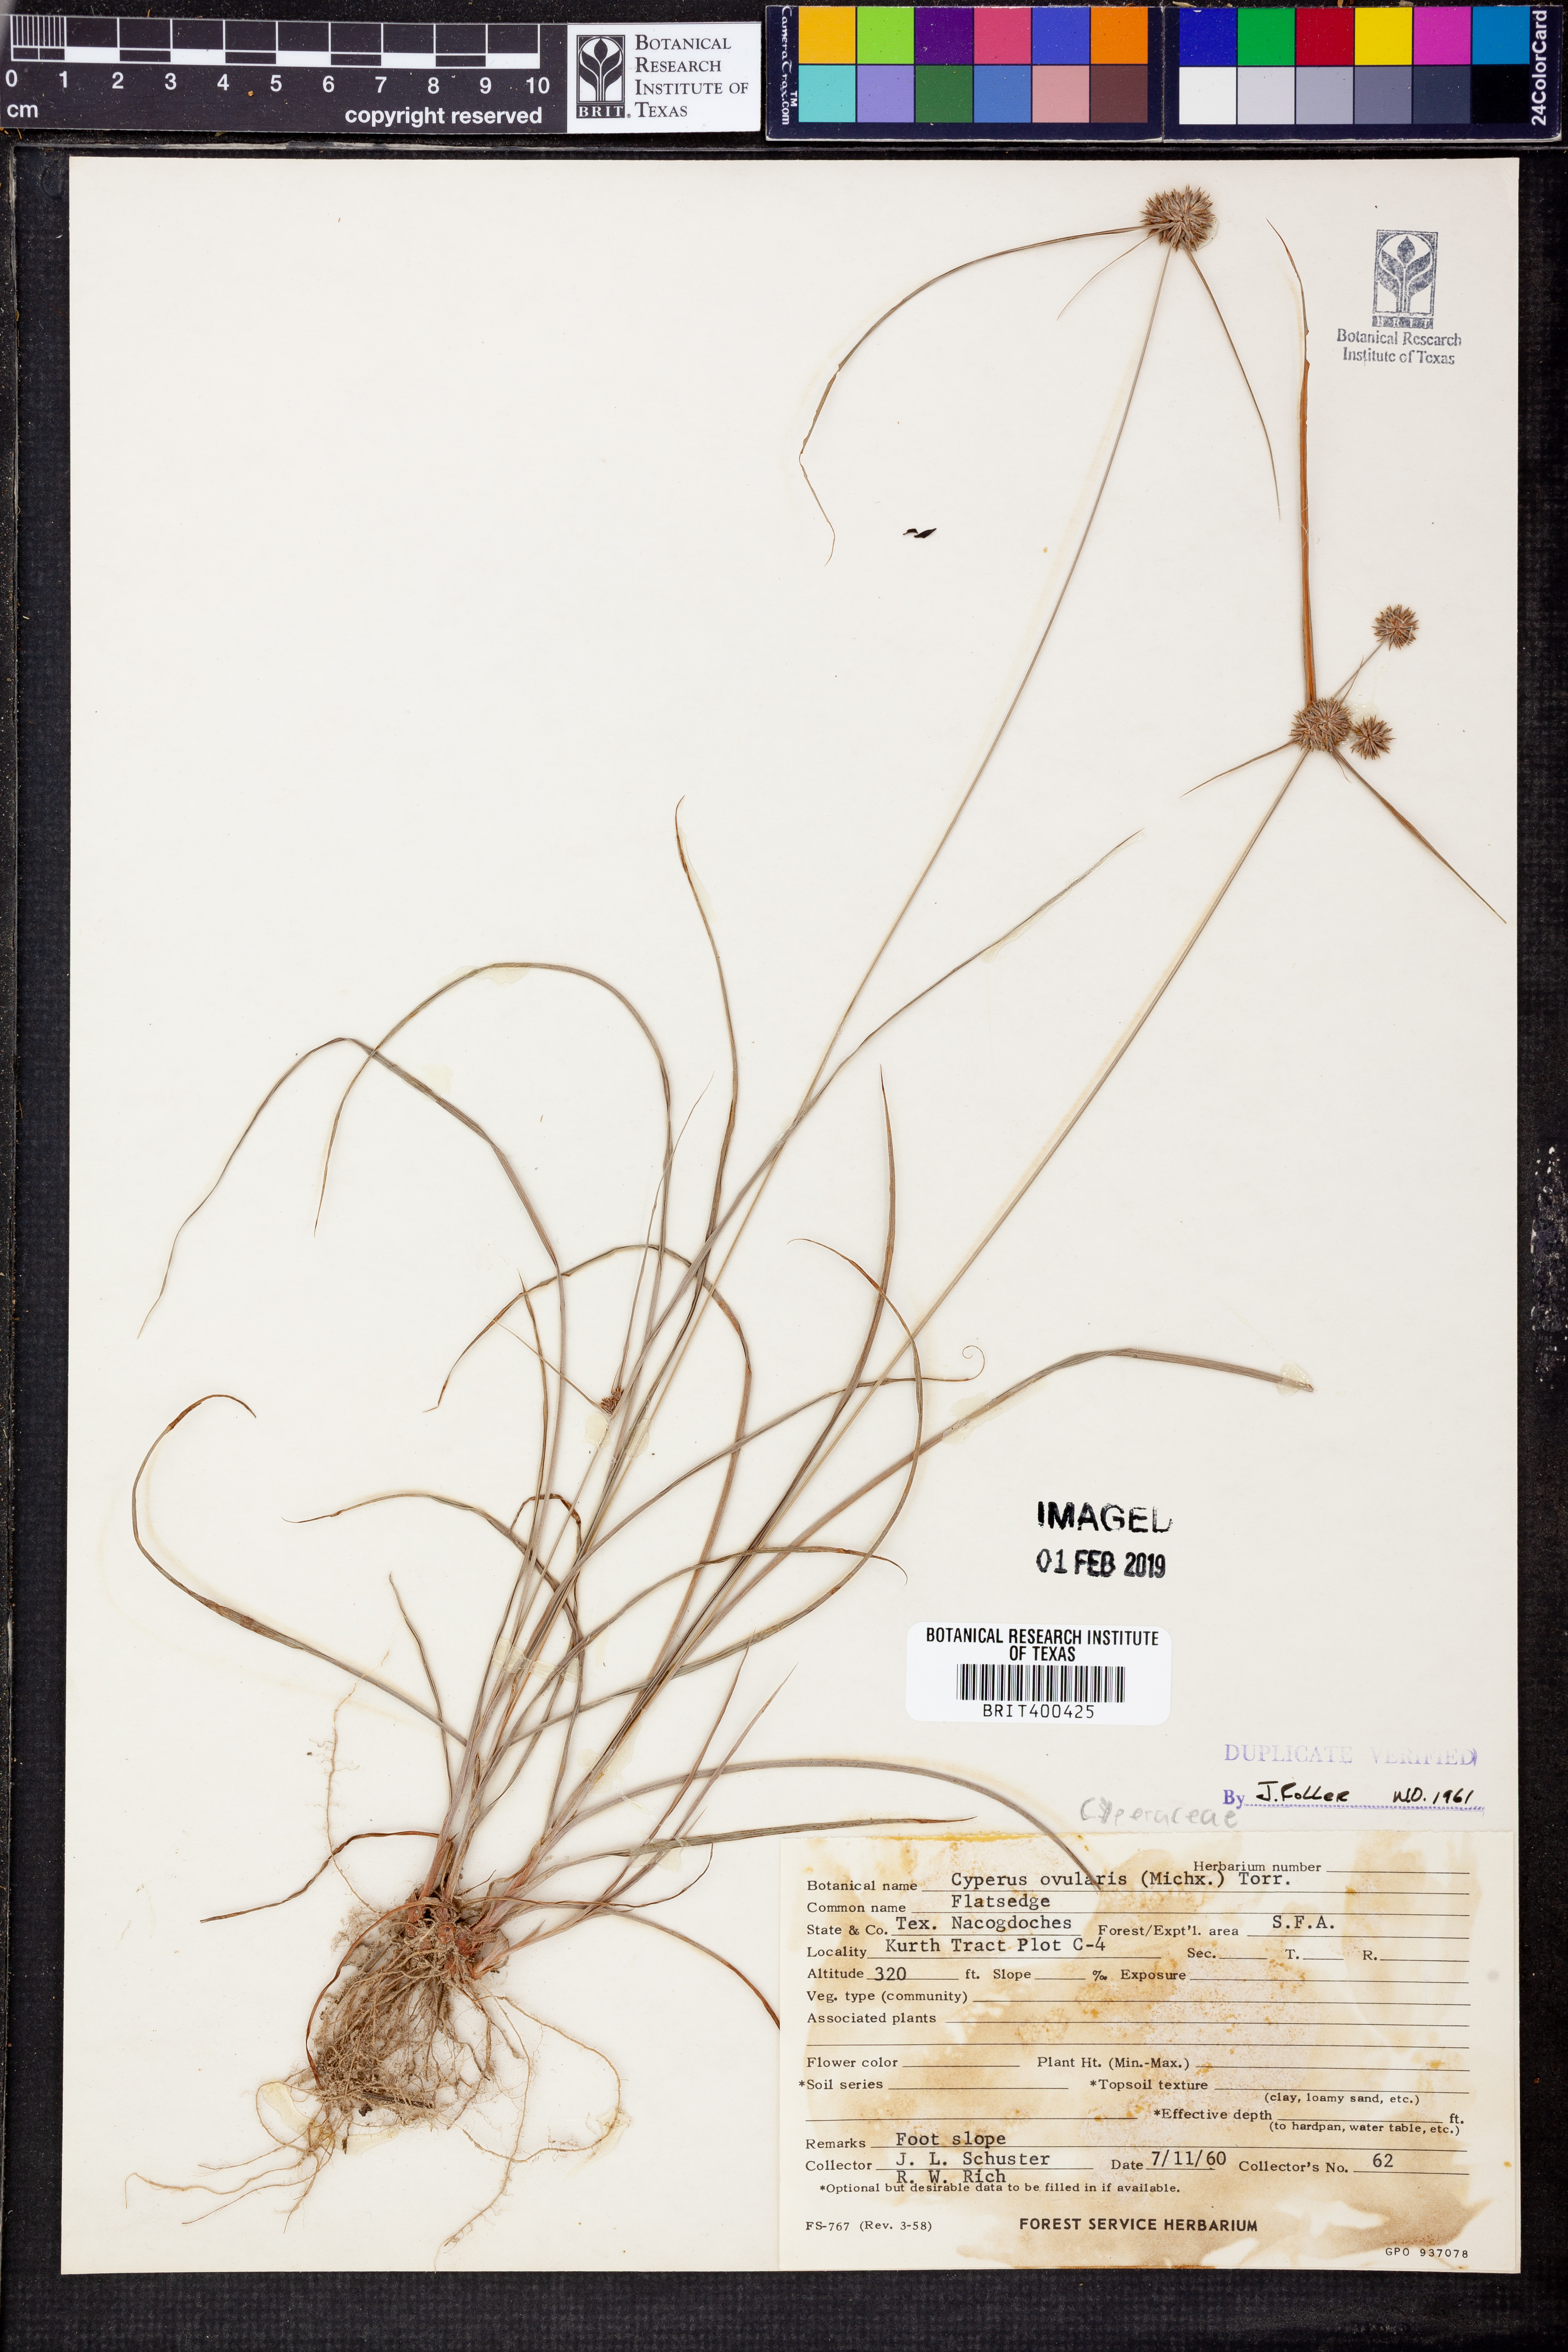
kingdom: Plantae
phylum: Tracheophyta
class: Liliopsida
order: Poales
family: Cyperaceae
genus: Cyperus
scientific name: Cyperus echinatus
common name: Teasel sedge
